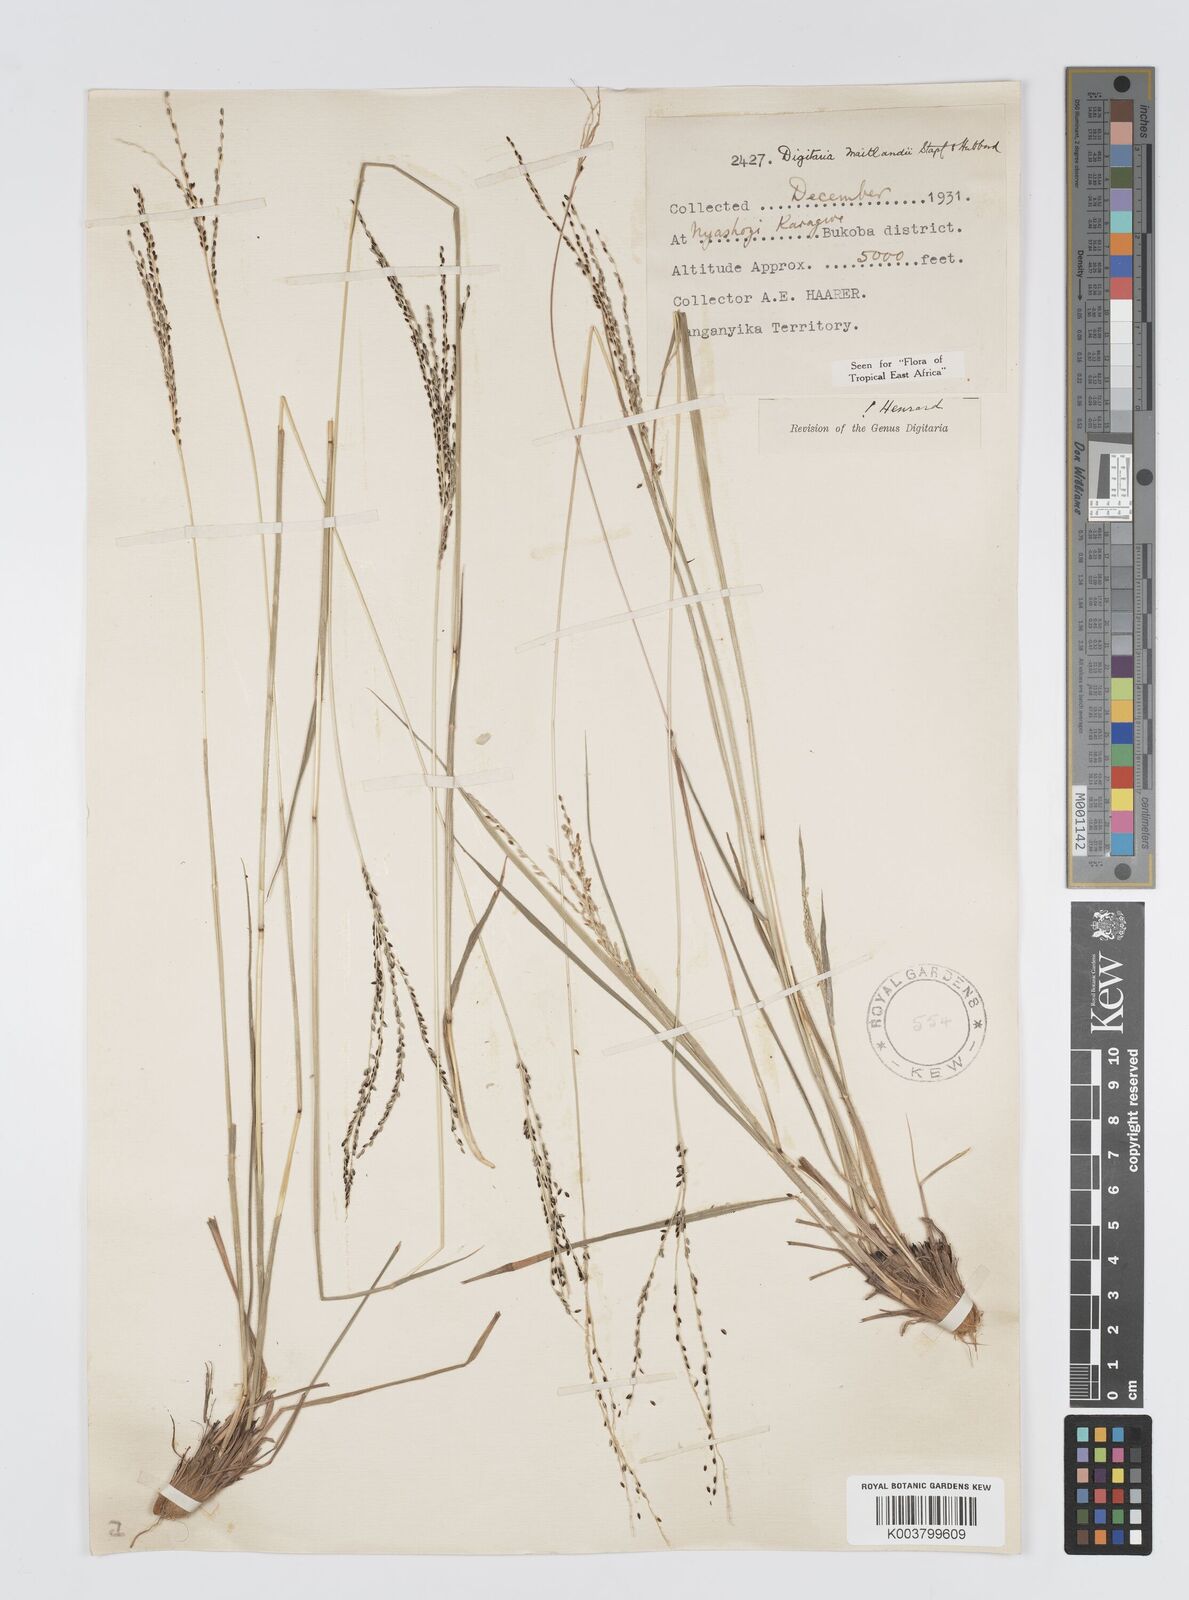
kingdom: Plantae
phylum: Tracheophyta
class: Liliopsida
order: Poales
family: Poaceae
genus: Digitaria
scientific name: Digitaria maitlandii
